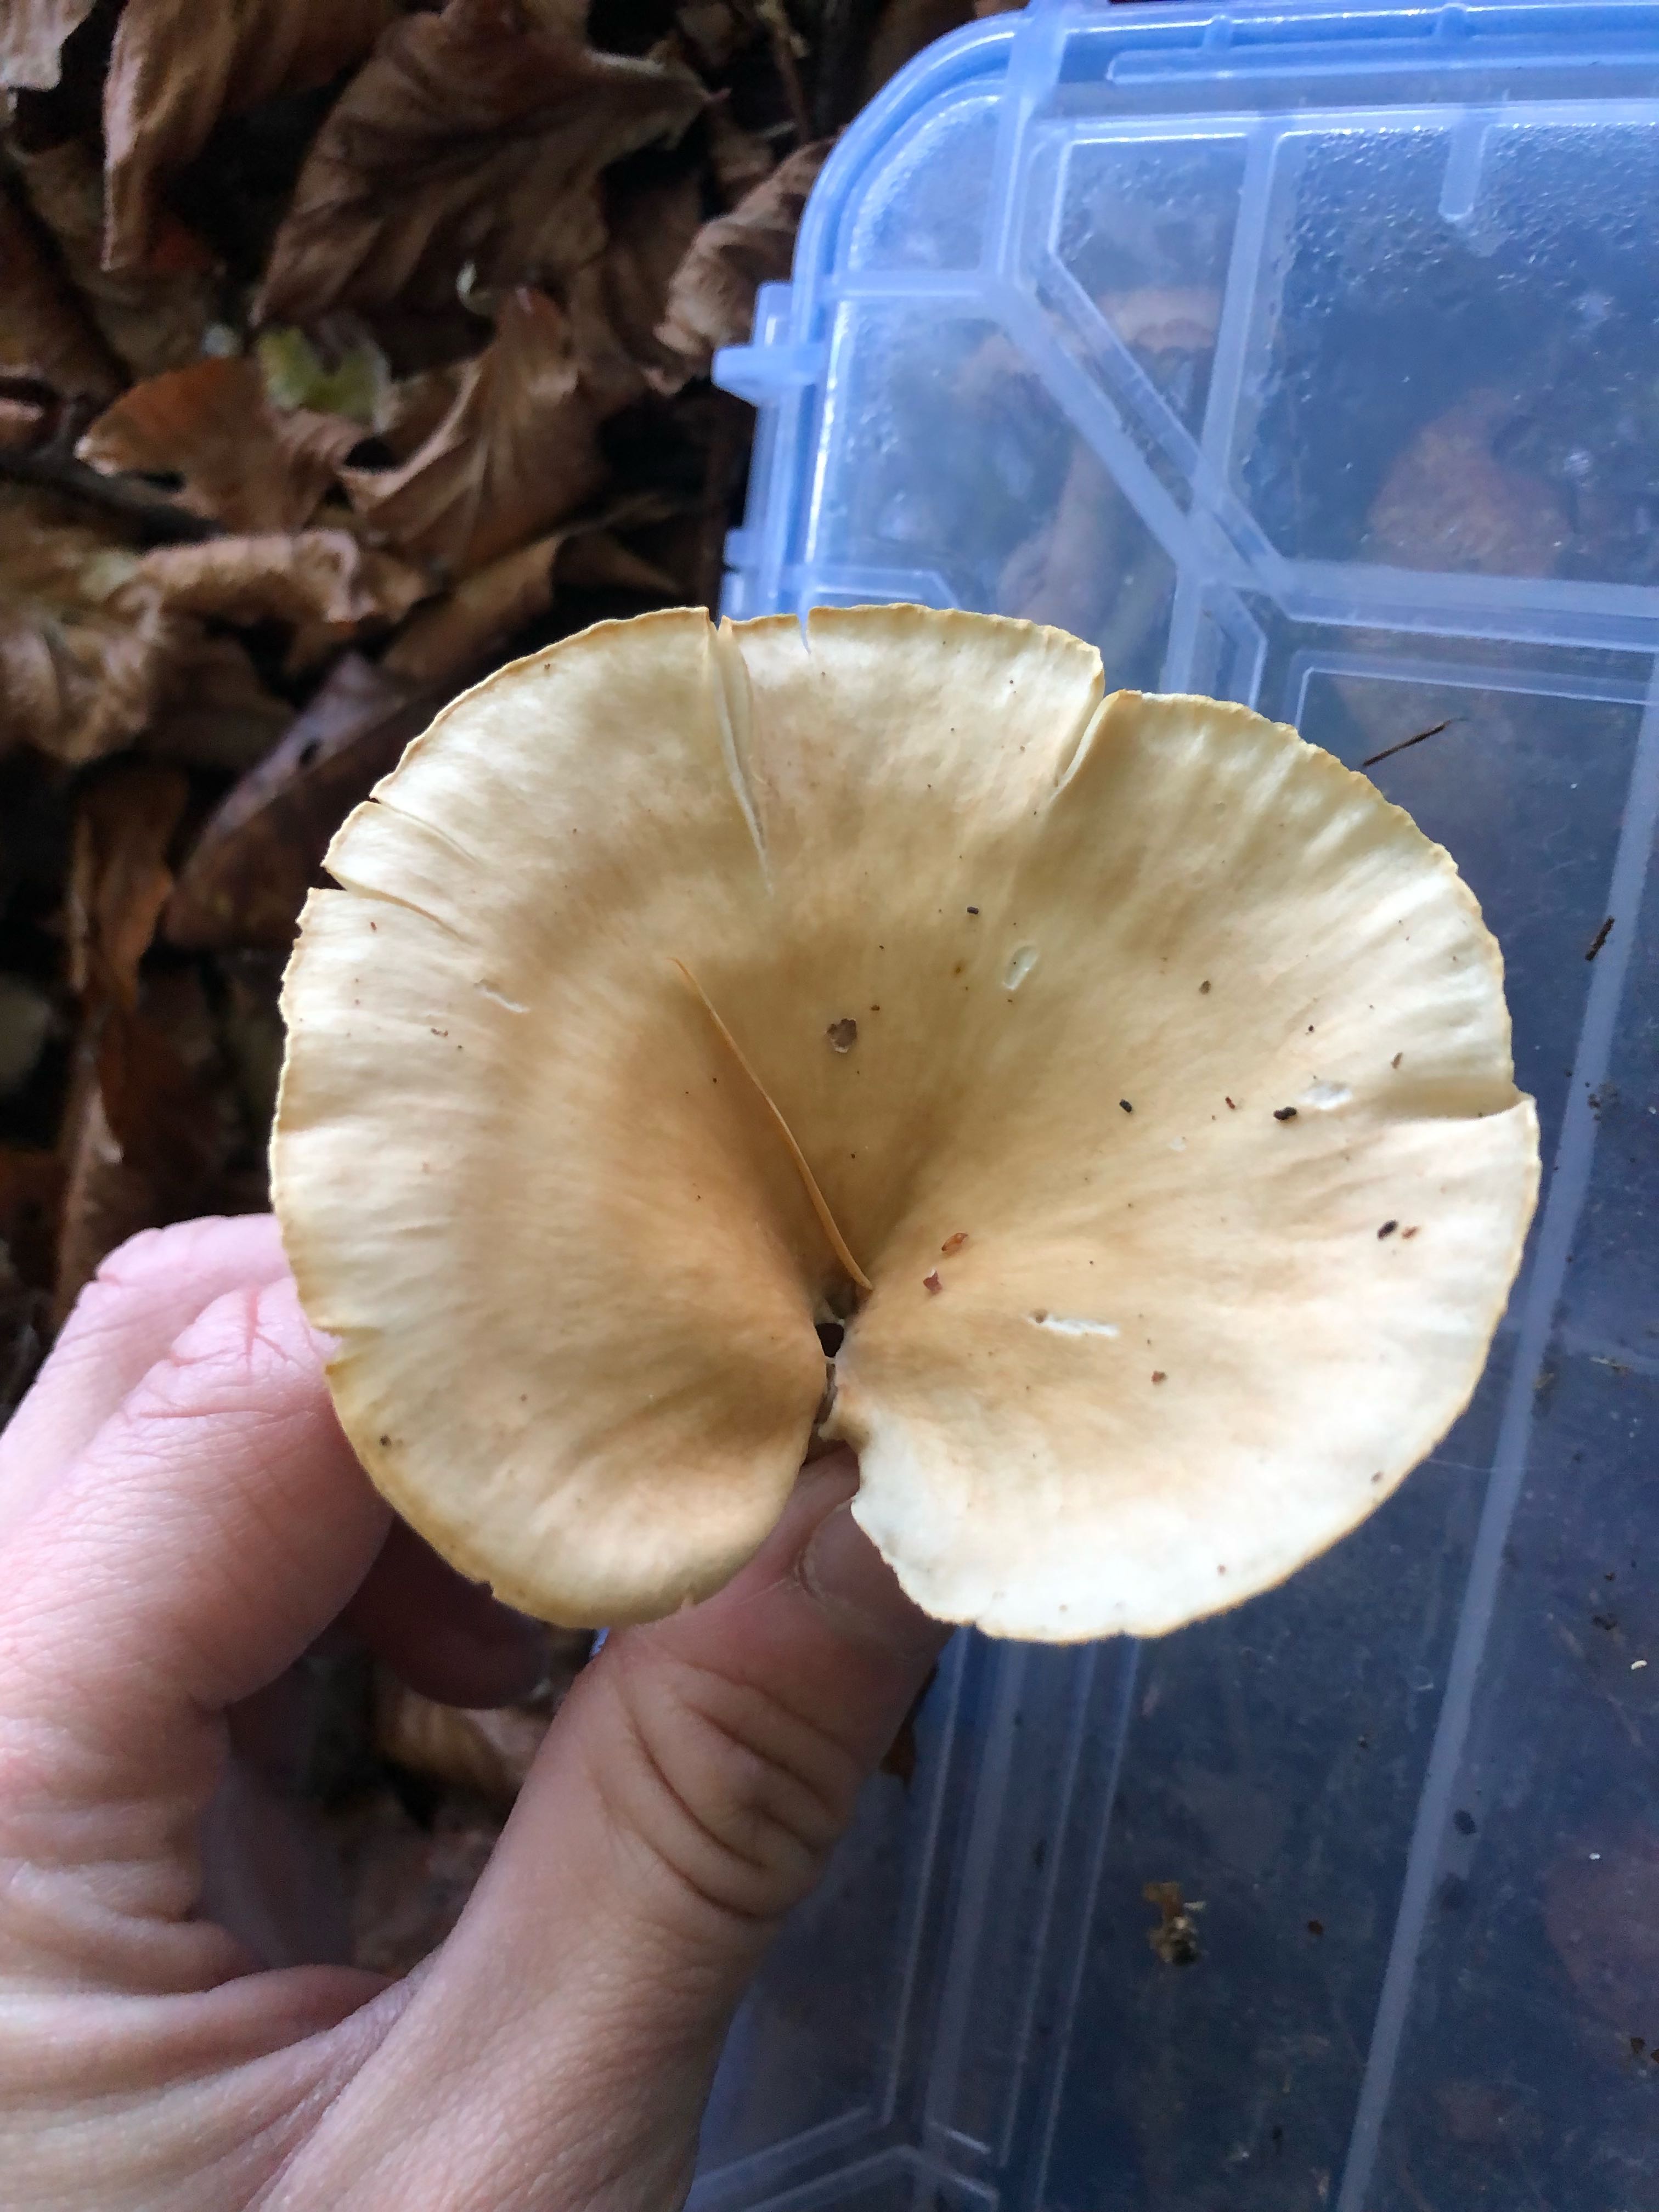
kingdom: Fungi
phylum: Basidiomycota
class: Agaricomycetes
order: Agaricales
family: Tricholomataceae
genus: Infundibulicybe
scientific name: Infundibulicybe gibba
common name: almindelig tragthat
